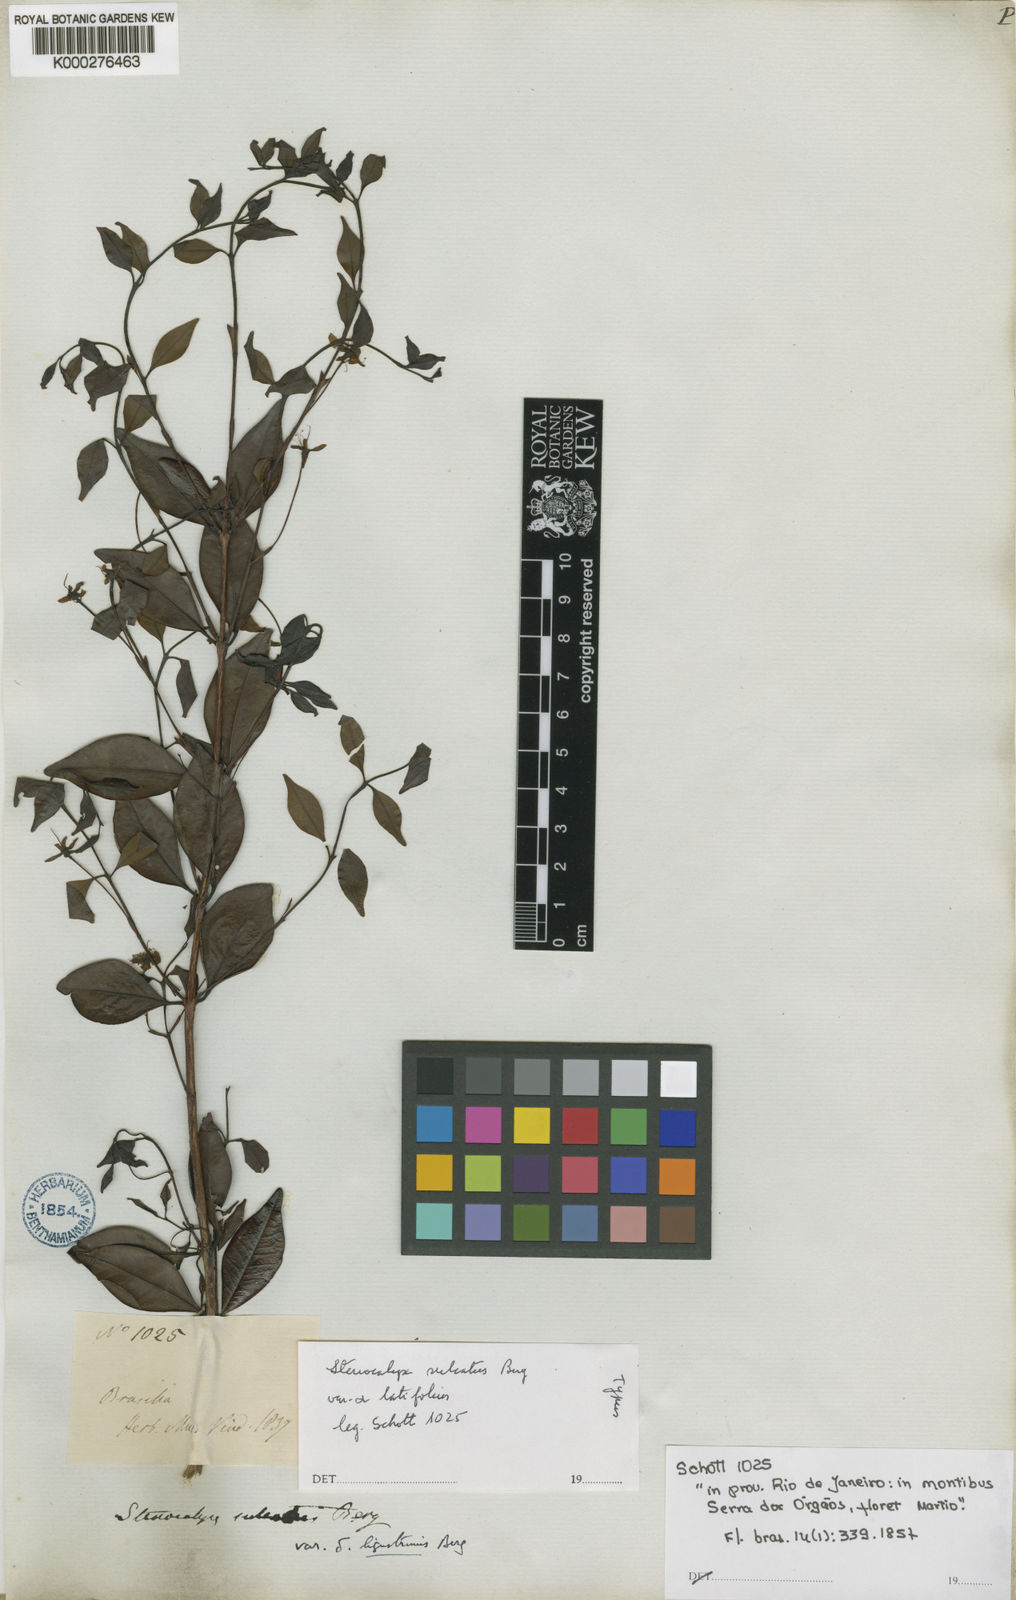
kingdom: Plantae
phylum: Tracheophyta
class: Magnoliopsida
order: Myrtales
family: Myrtaceae
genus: Eugenia
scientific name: Eugenia sulcata
